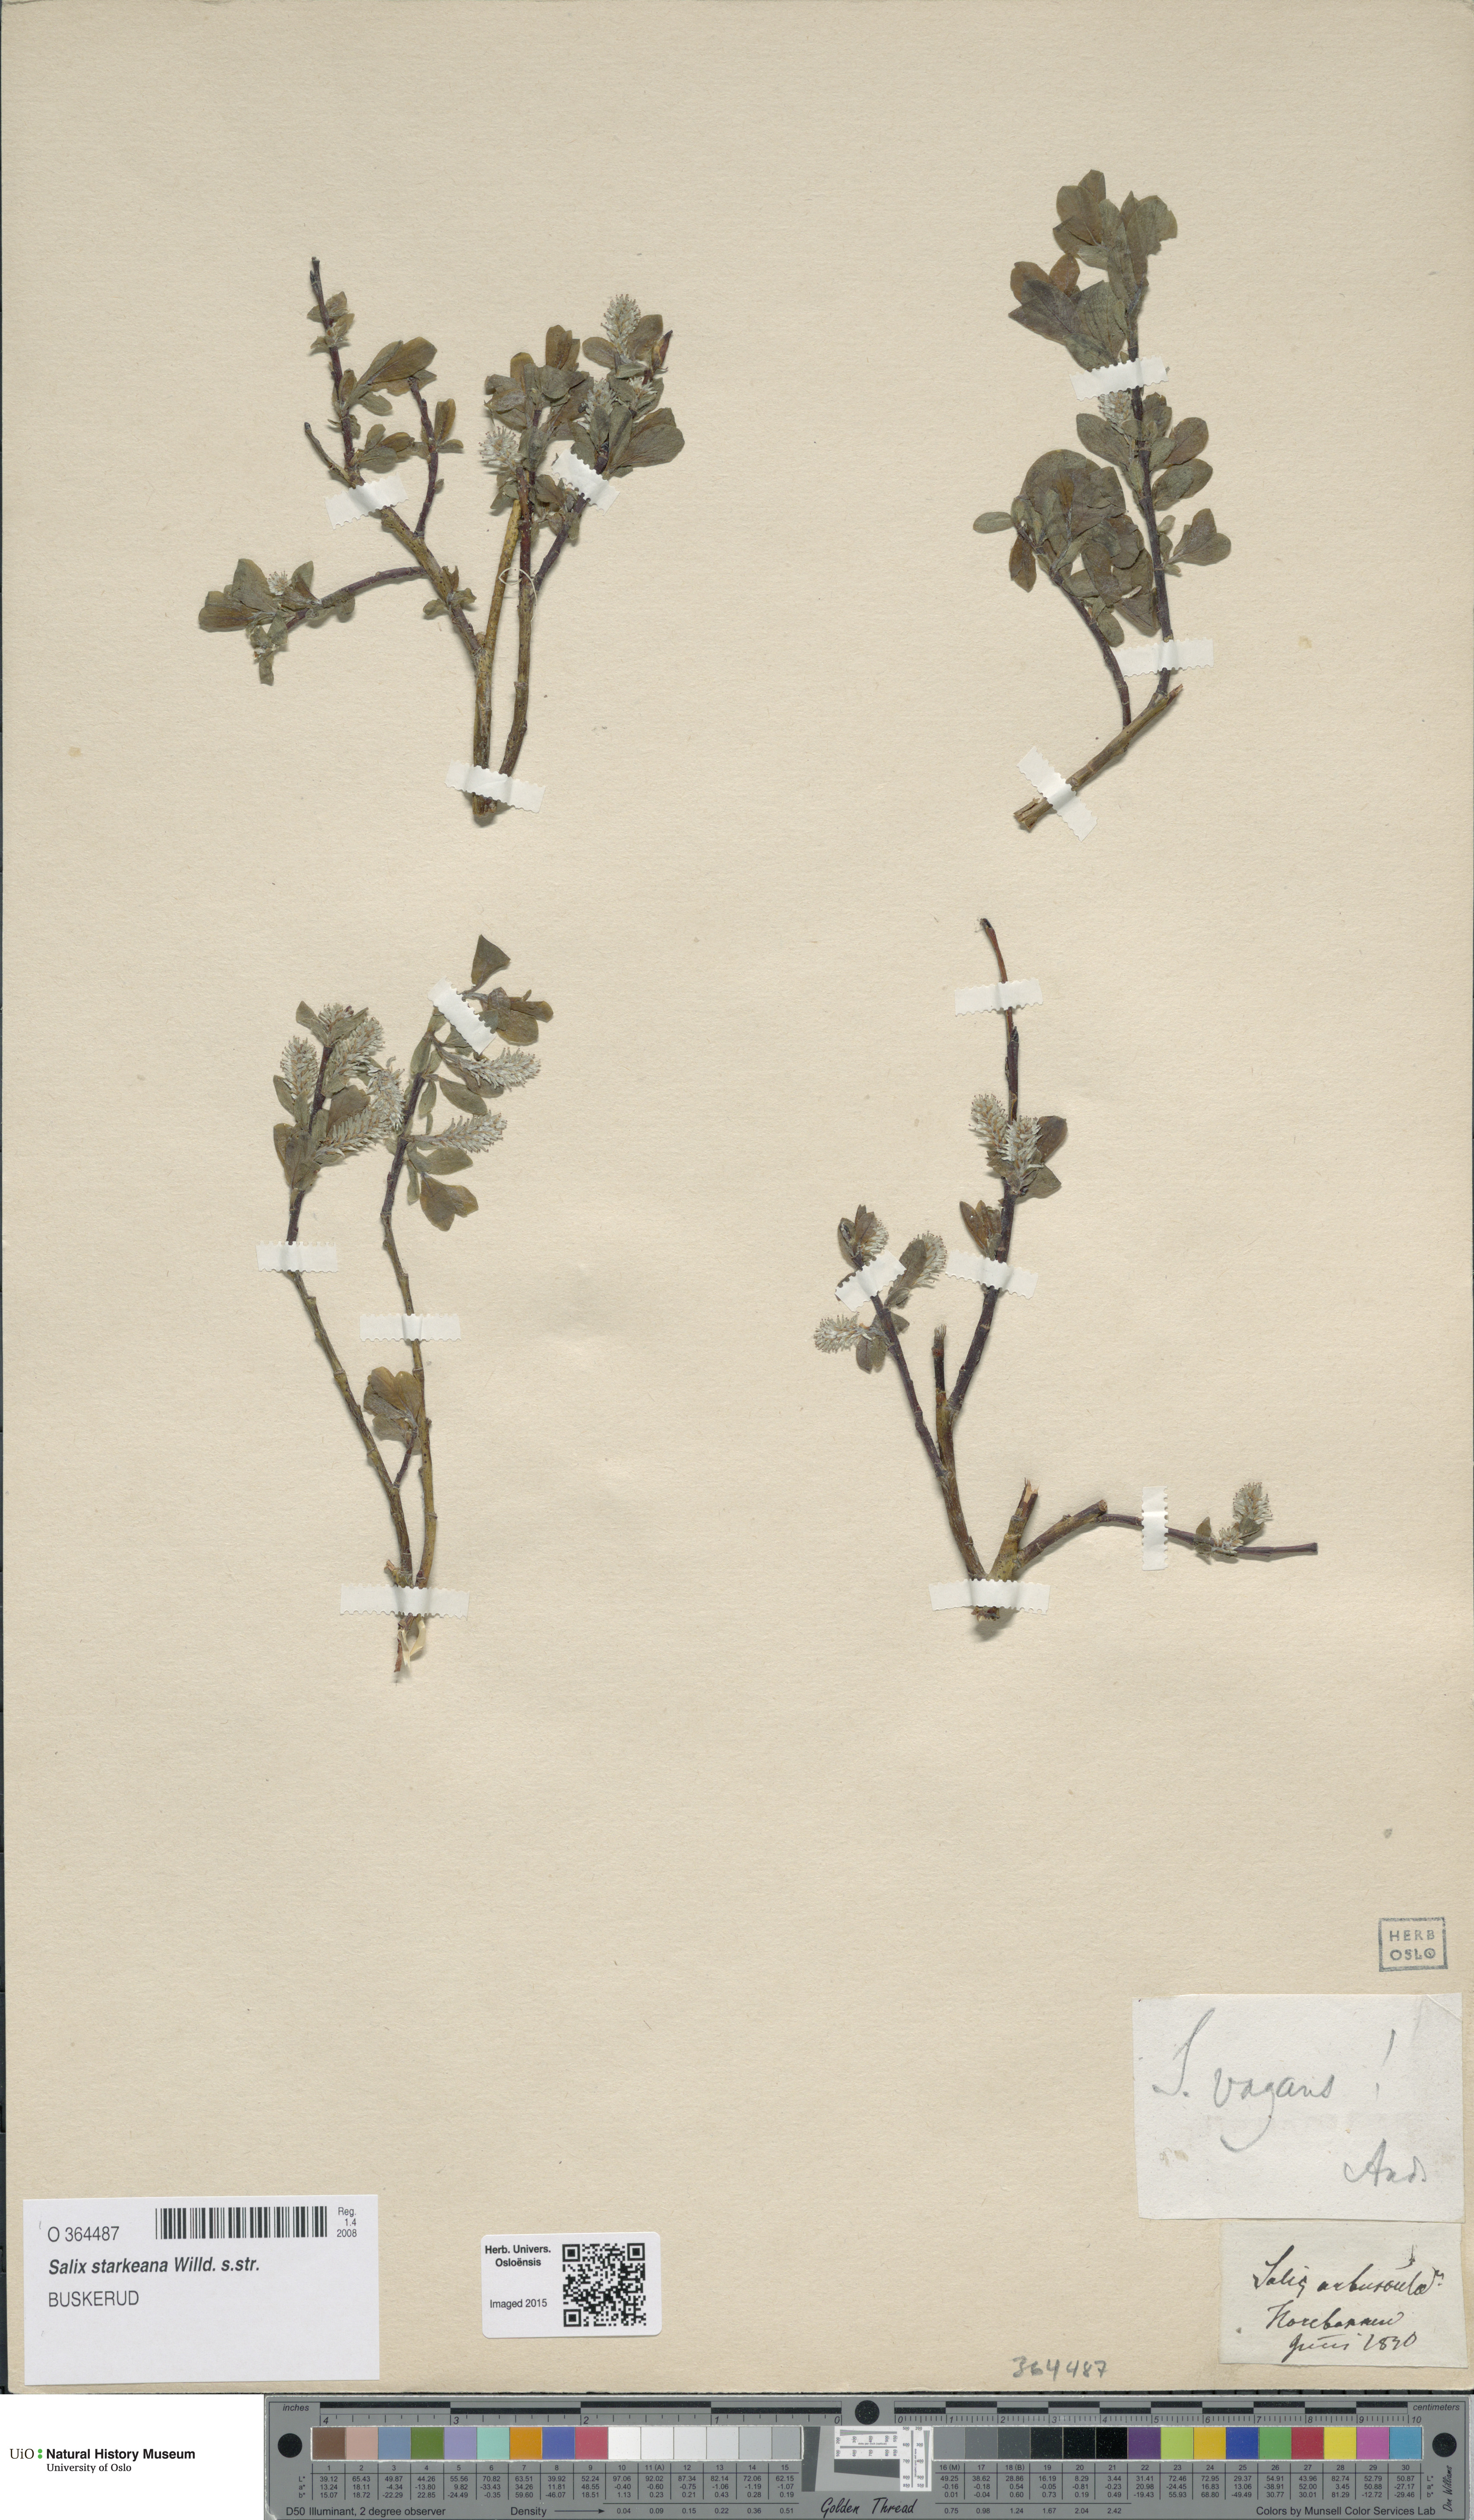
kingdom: Plantae
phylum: Tracheophyta
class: Magnoliopsida
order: Malpighiales
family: Salicaceae
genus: Salix
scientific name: Salix starkeana
